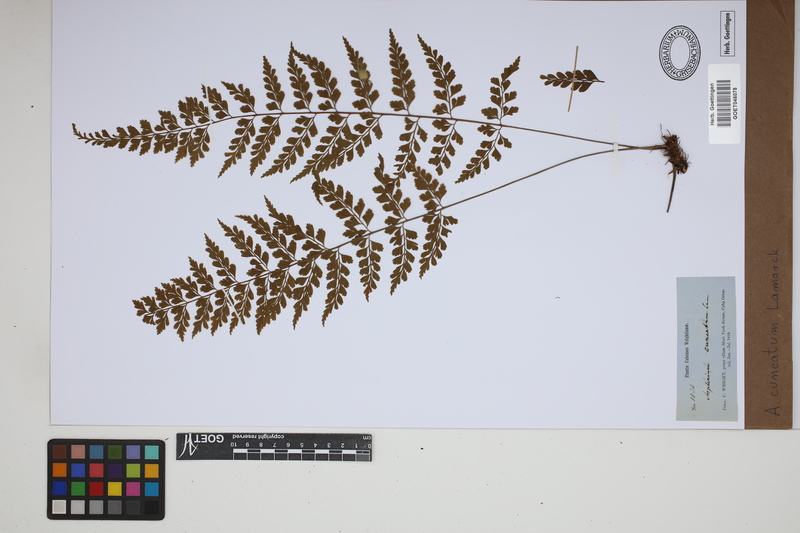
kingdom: Plantae
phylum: Tracheophyta
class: Polypodiopsida
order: Polypodiales
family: Aspleniaceae
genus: Asplenium
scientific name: Asplenium cuneatum
